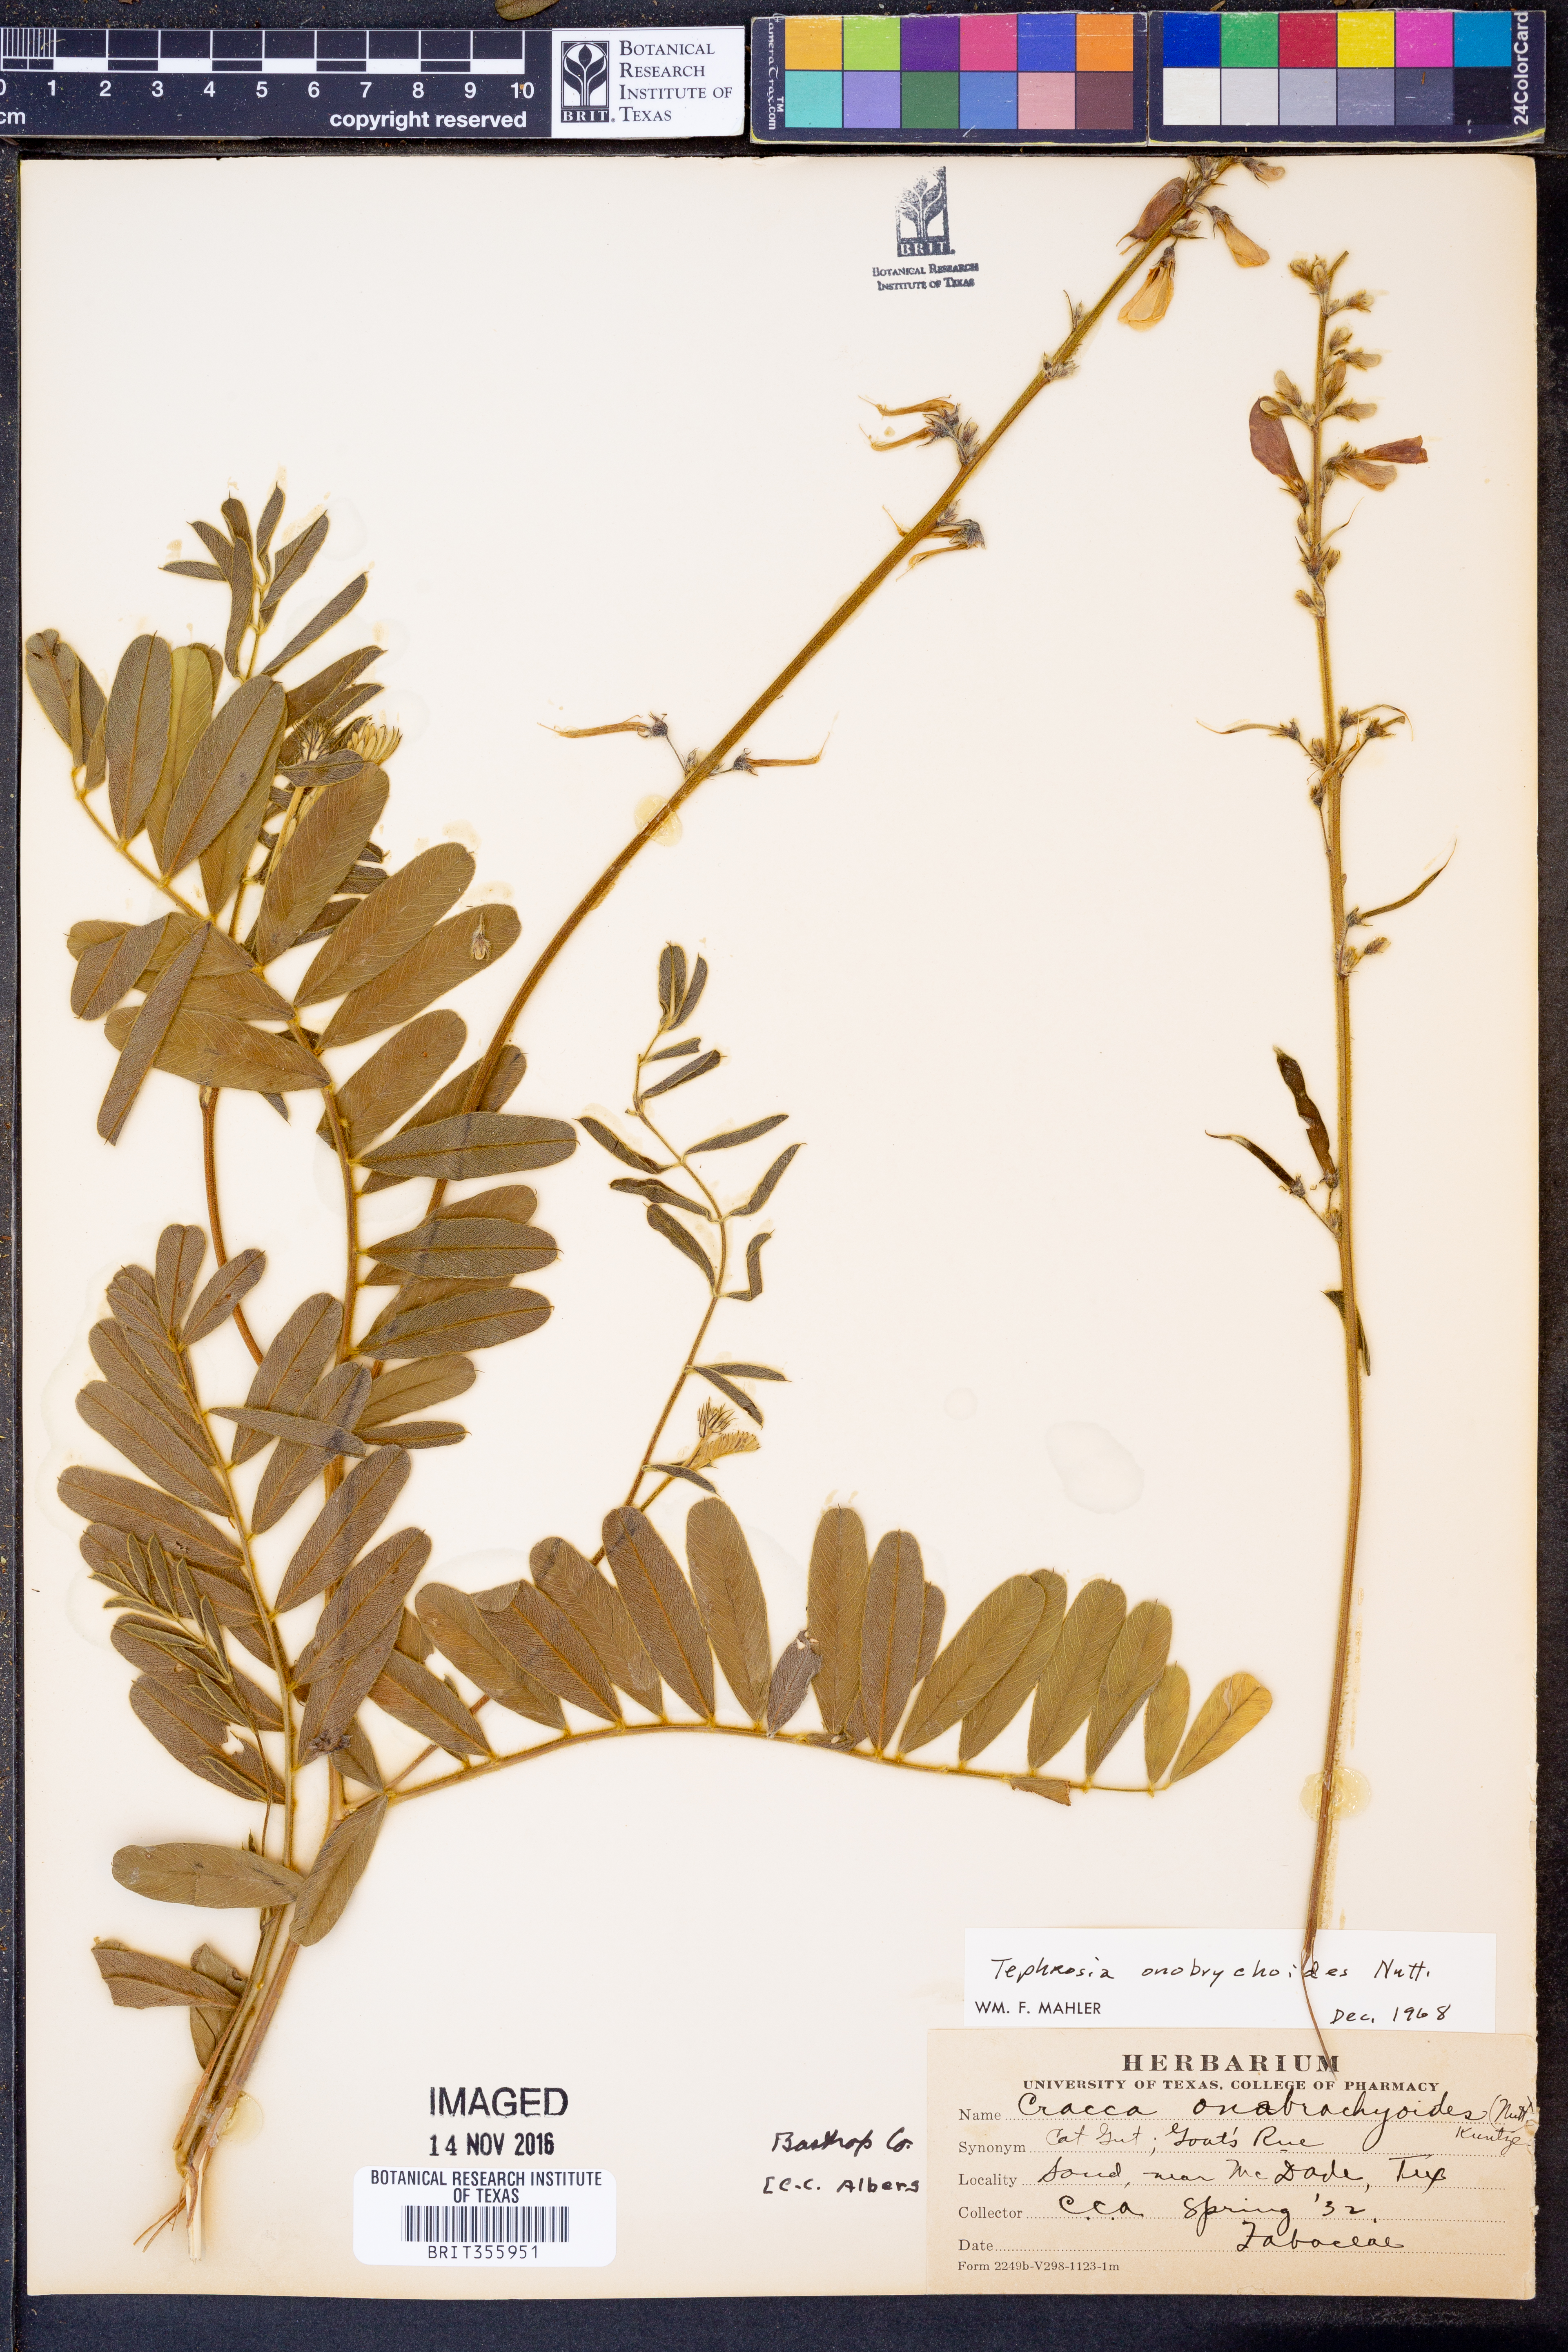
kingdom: Plantae
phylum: Tracheophyta
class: Magnoliopsida
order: Fabales
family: Fabaceae
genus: Tephrosia
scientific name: Tephrosia onobrychoides
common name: Multi-bloom hoary-pea
